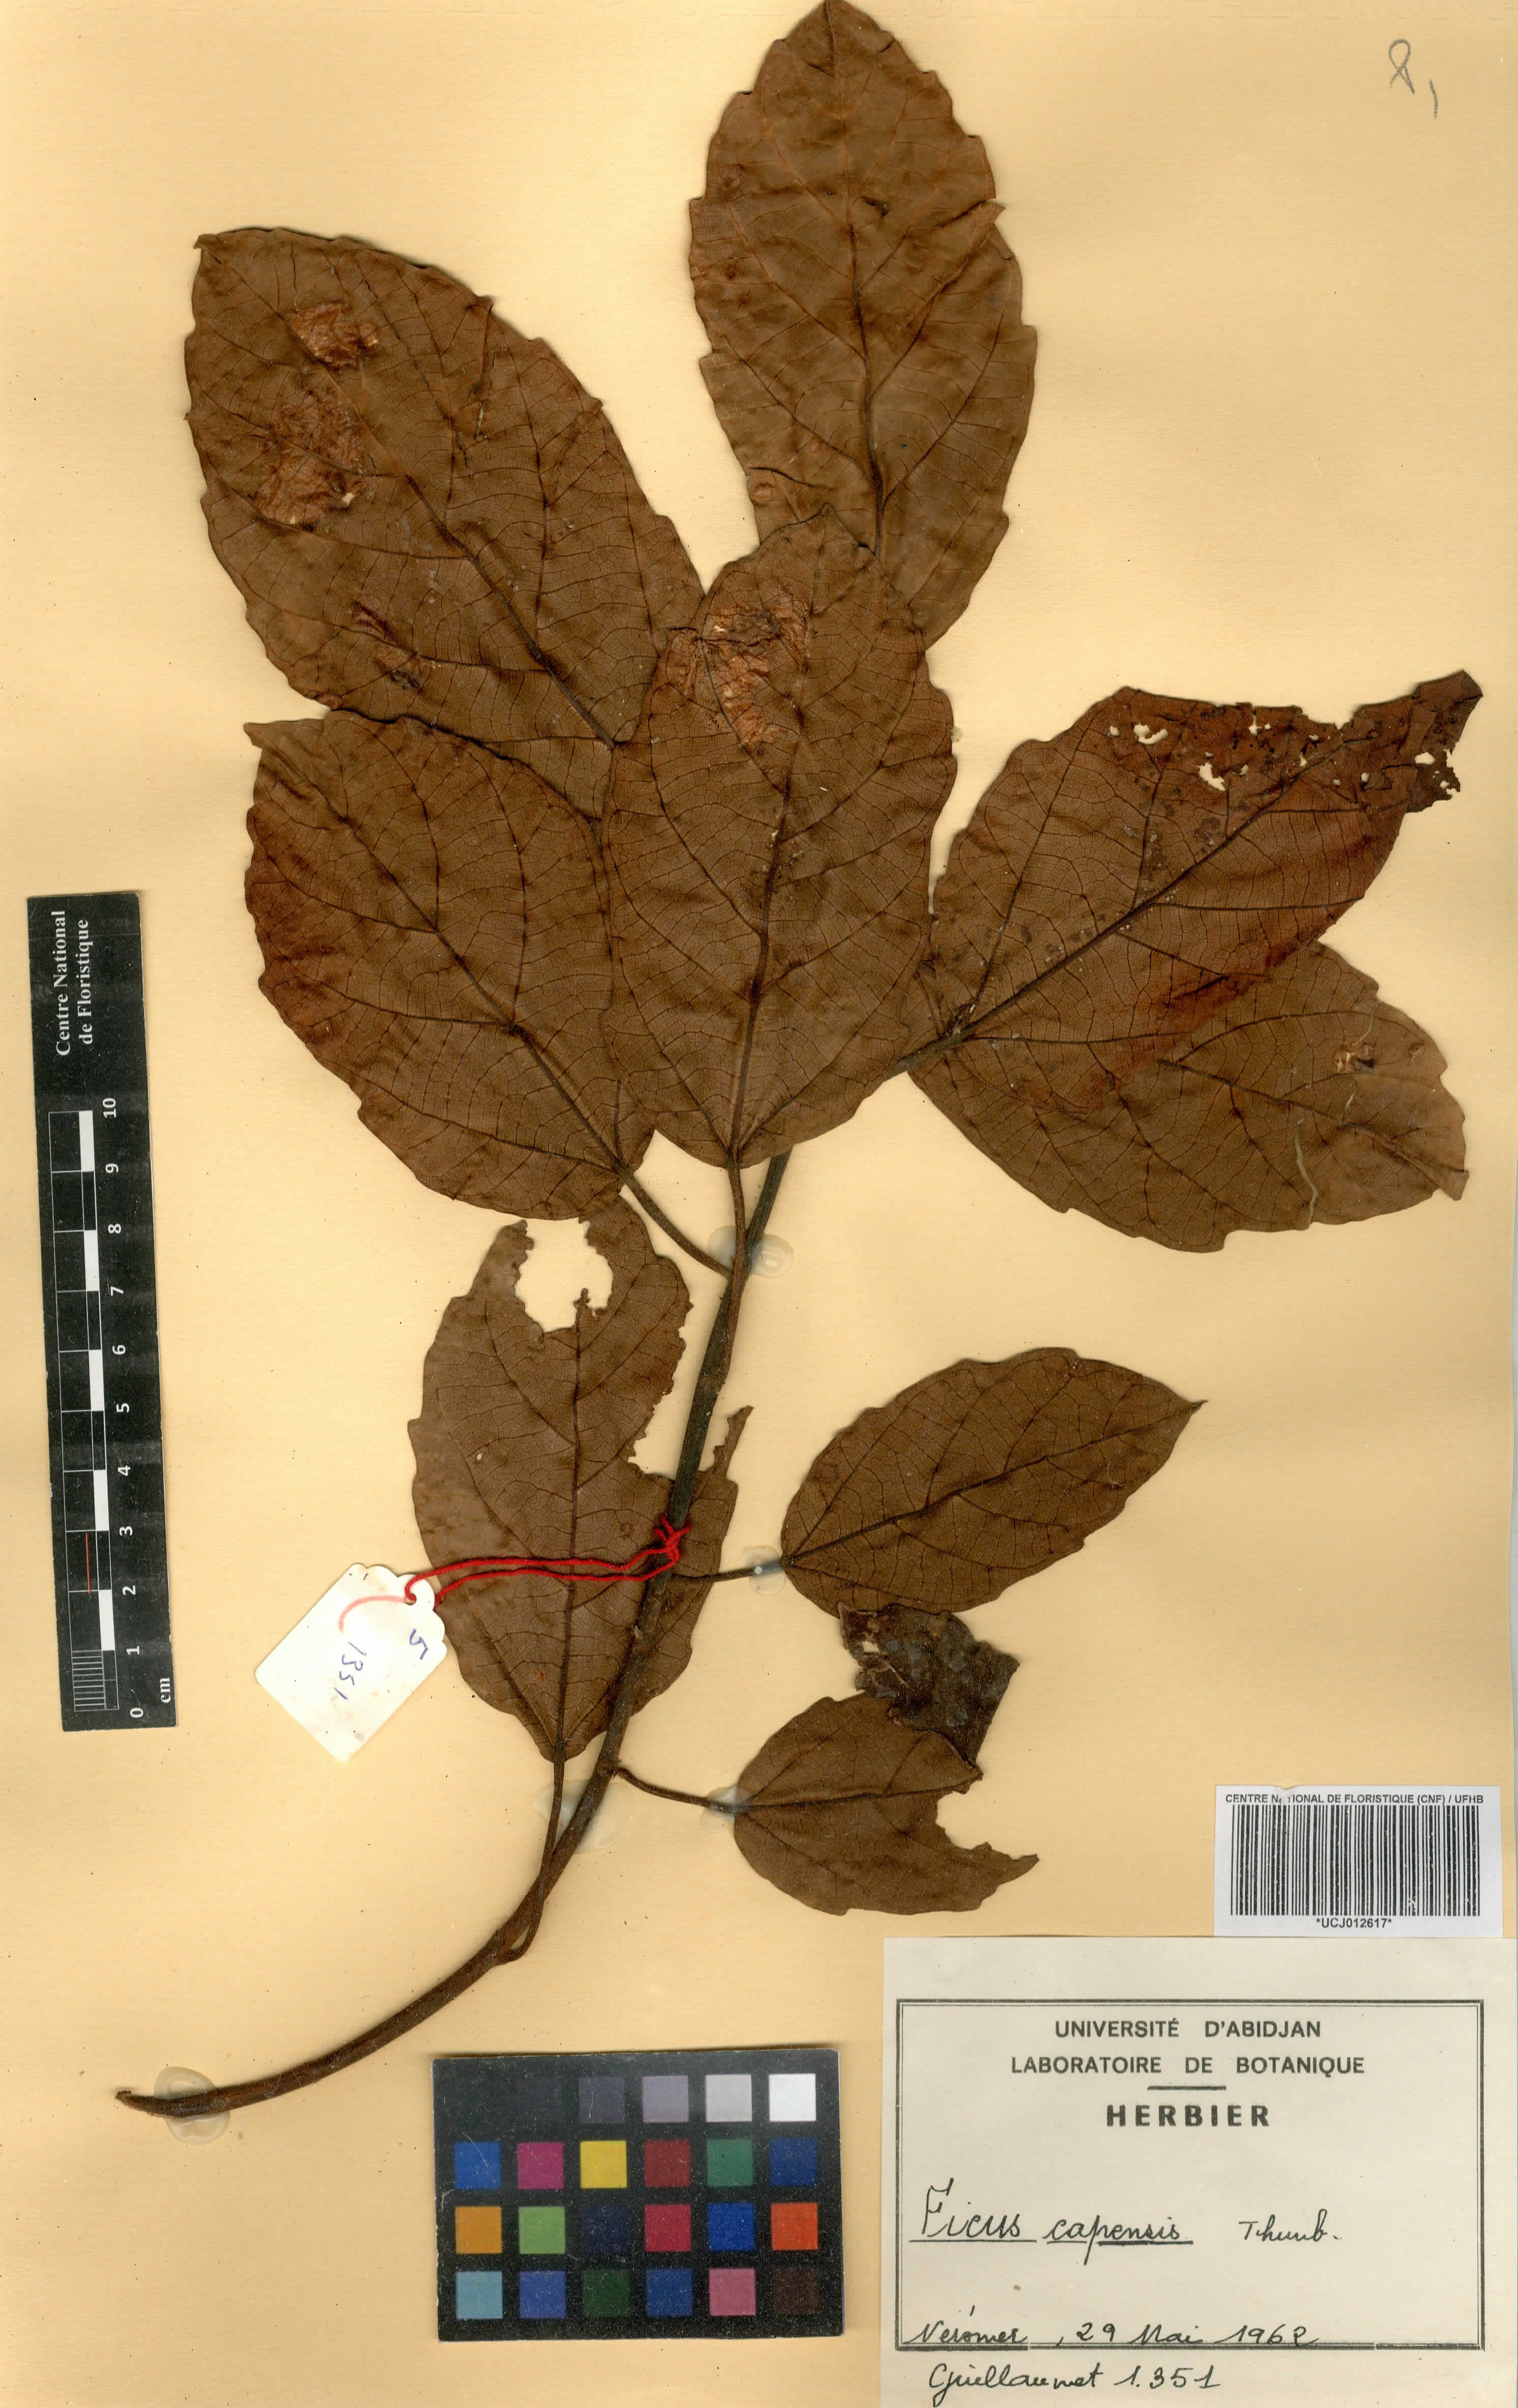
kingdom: Plantae
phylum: Tracheophyta
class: Magnoliopsida
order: Rosales
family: Moraceae
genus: Ficus
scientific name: Ficus sur
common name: Cape fig
